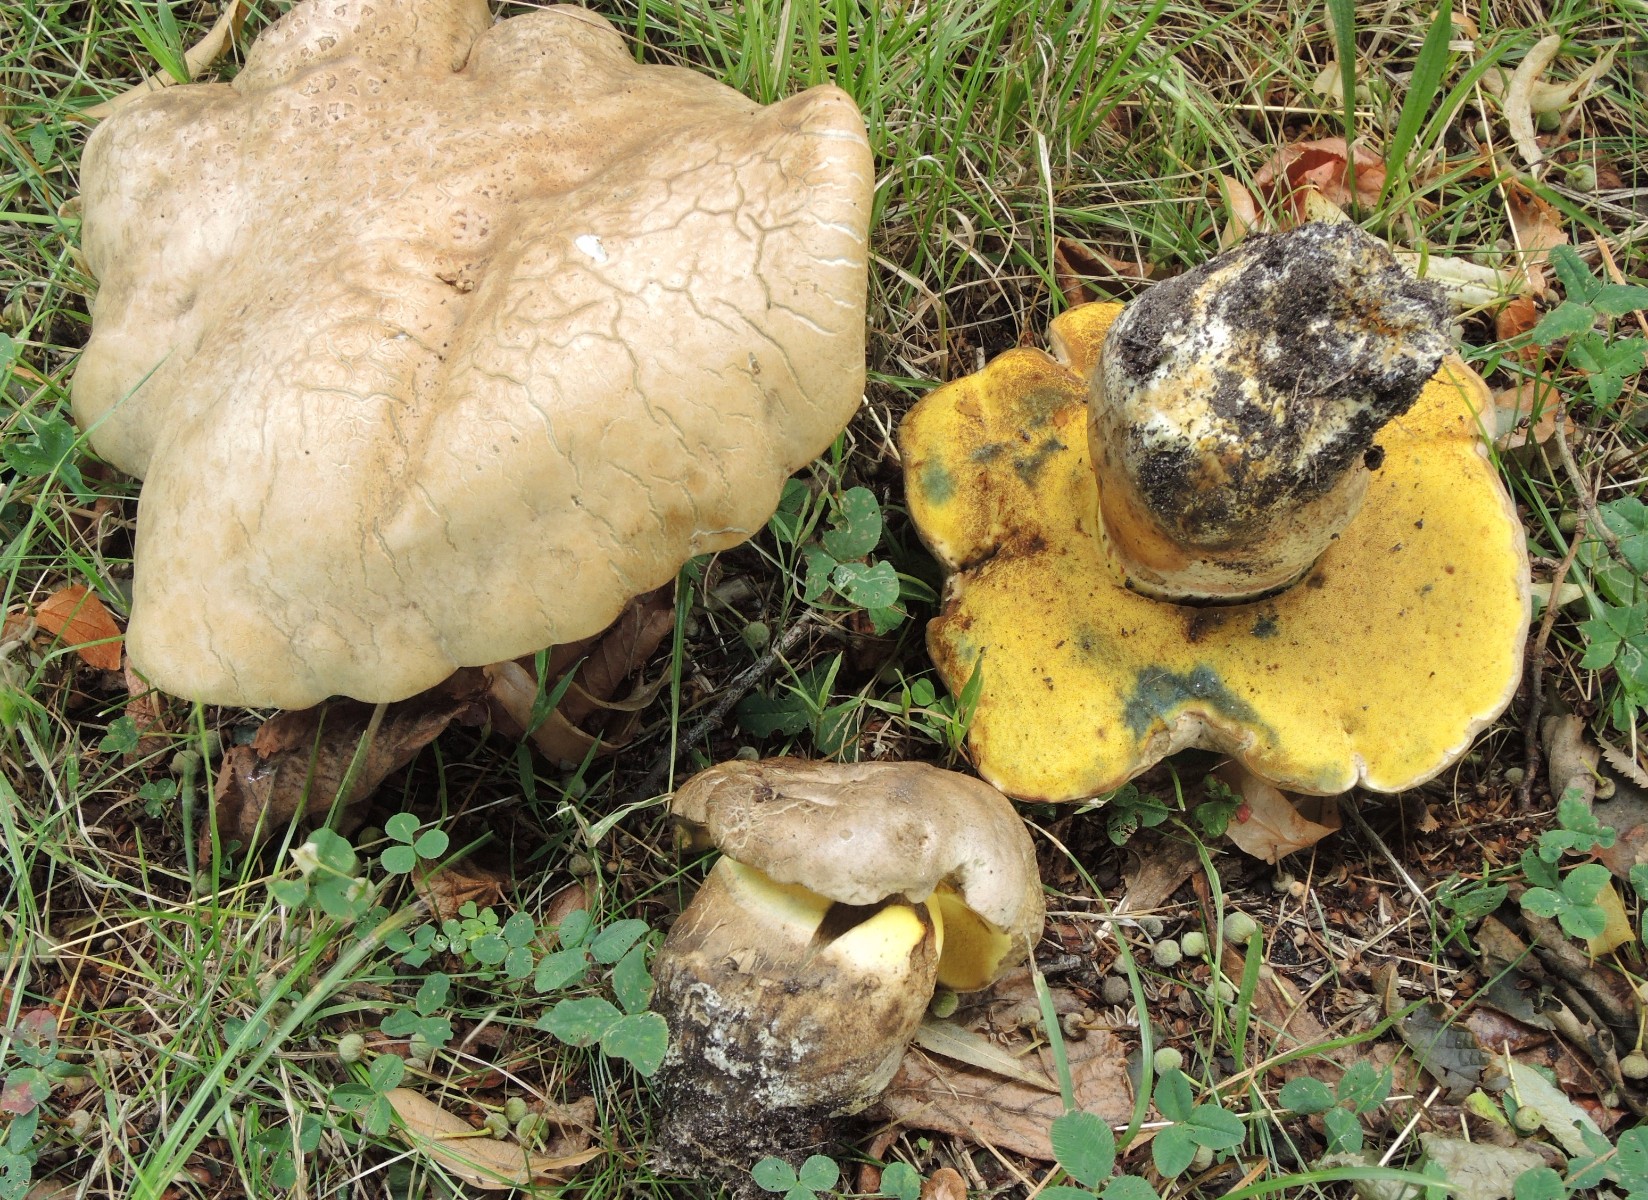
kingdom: Fungi
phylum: Basidiomycota
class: Agaricomycetes
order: Boletales
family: Boletaceae
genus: Caloboletus
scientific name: Caloboletus radicans
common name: rod-rørhat
